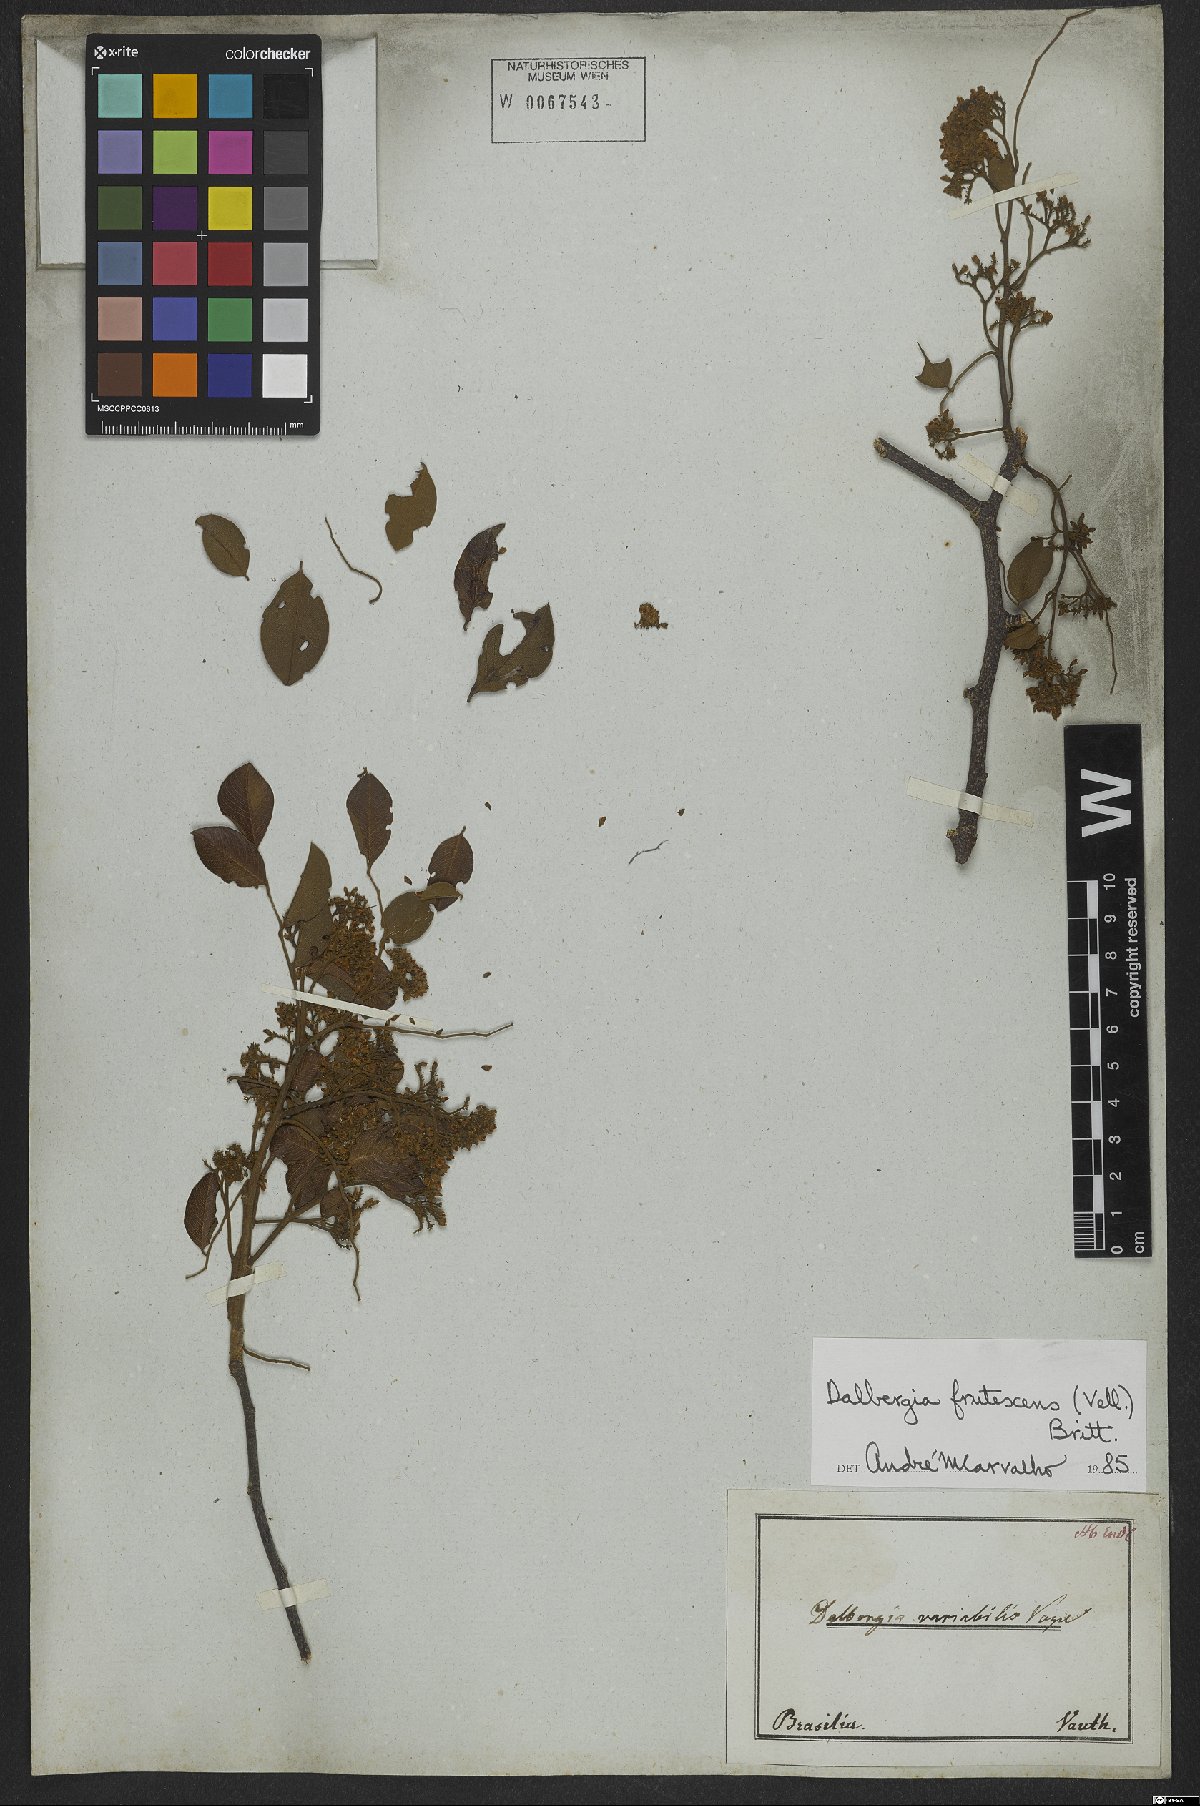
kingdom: Plantae
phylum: Tracheophyta
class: Magnoliopsida
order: Fabales
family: Fabaceae
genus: Dalbergia
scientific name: Dalbergia frutescens
